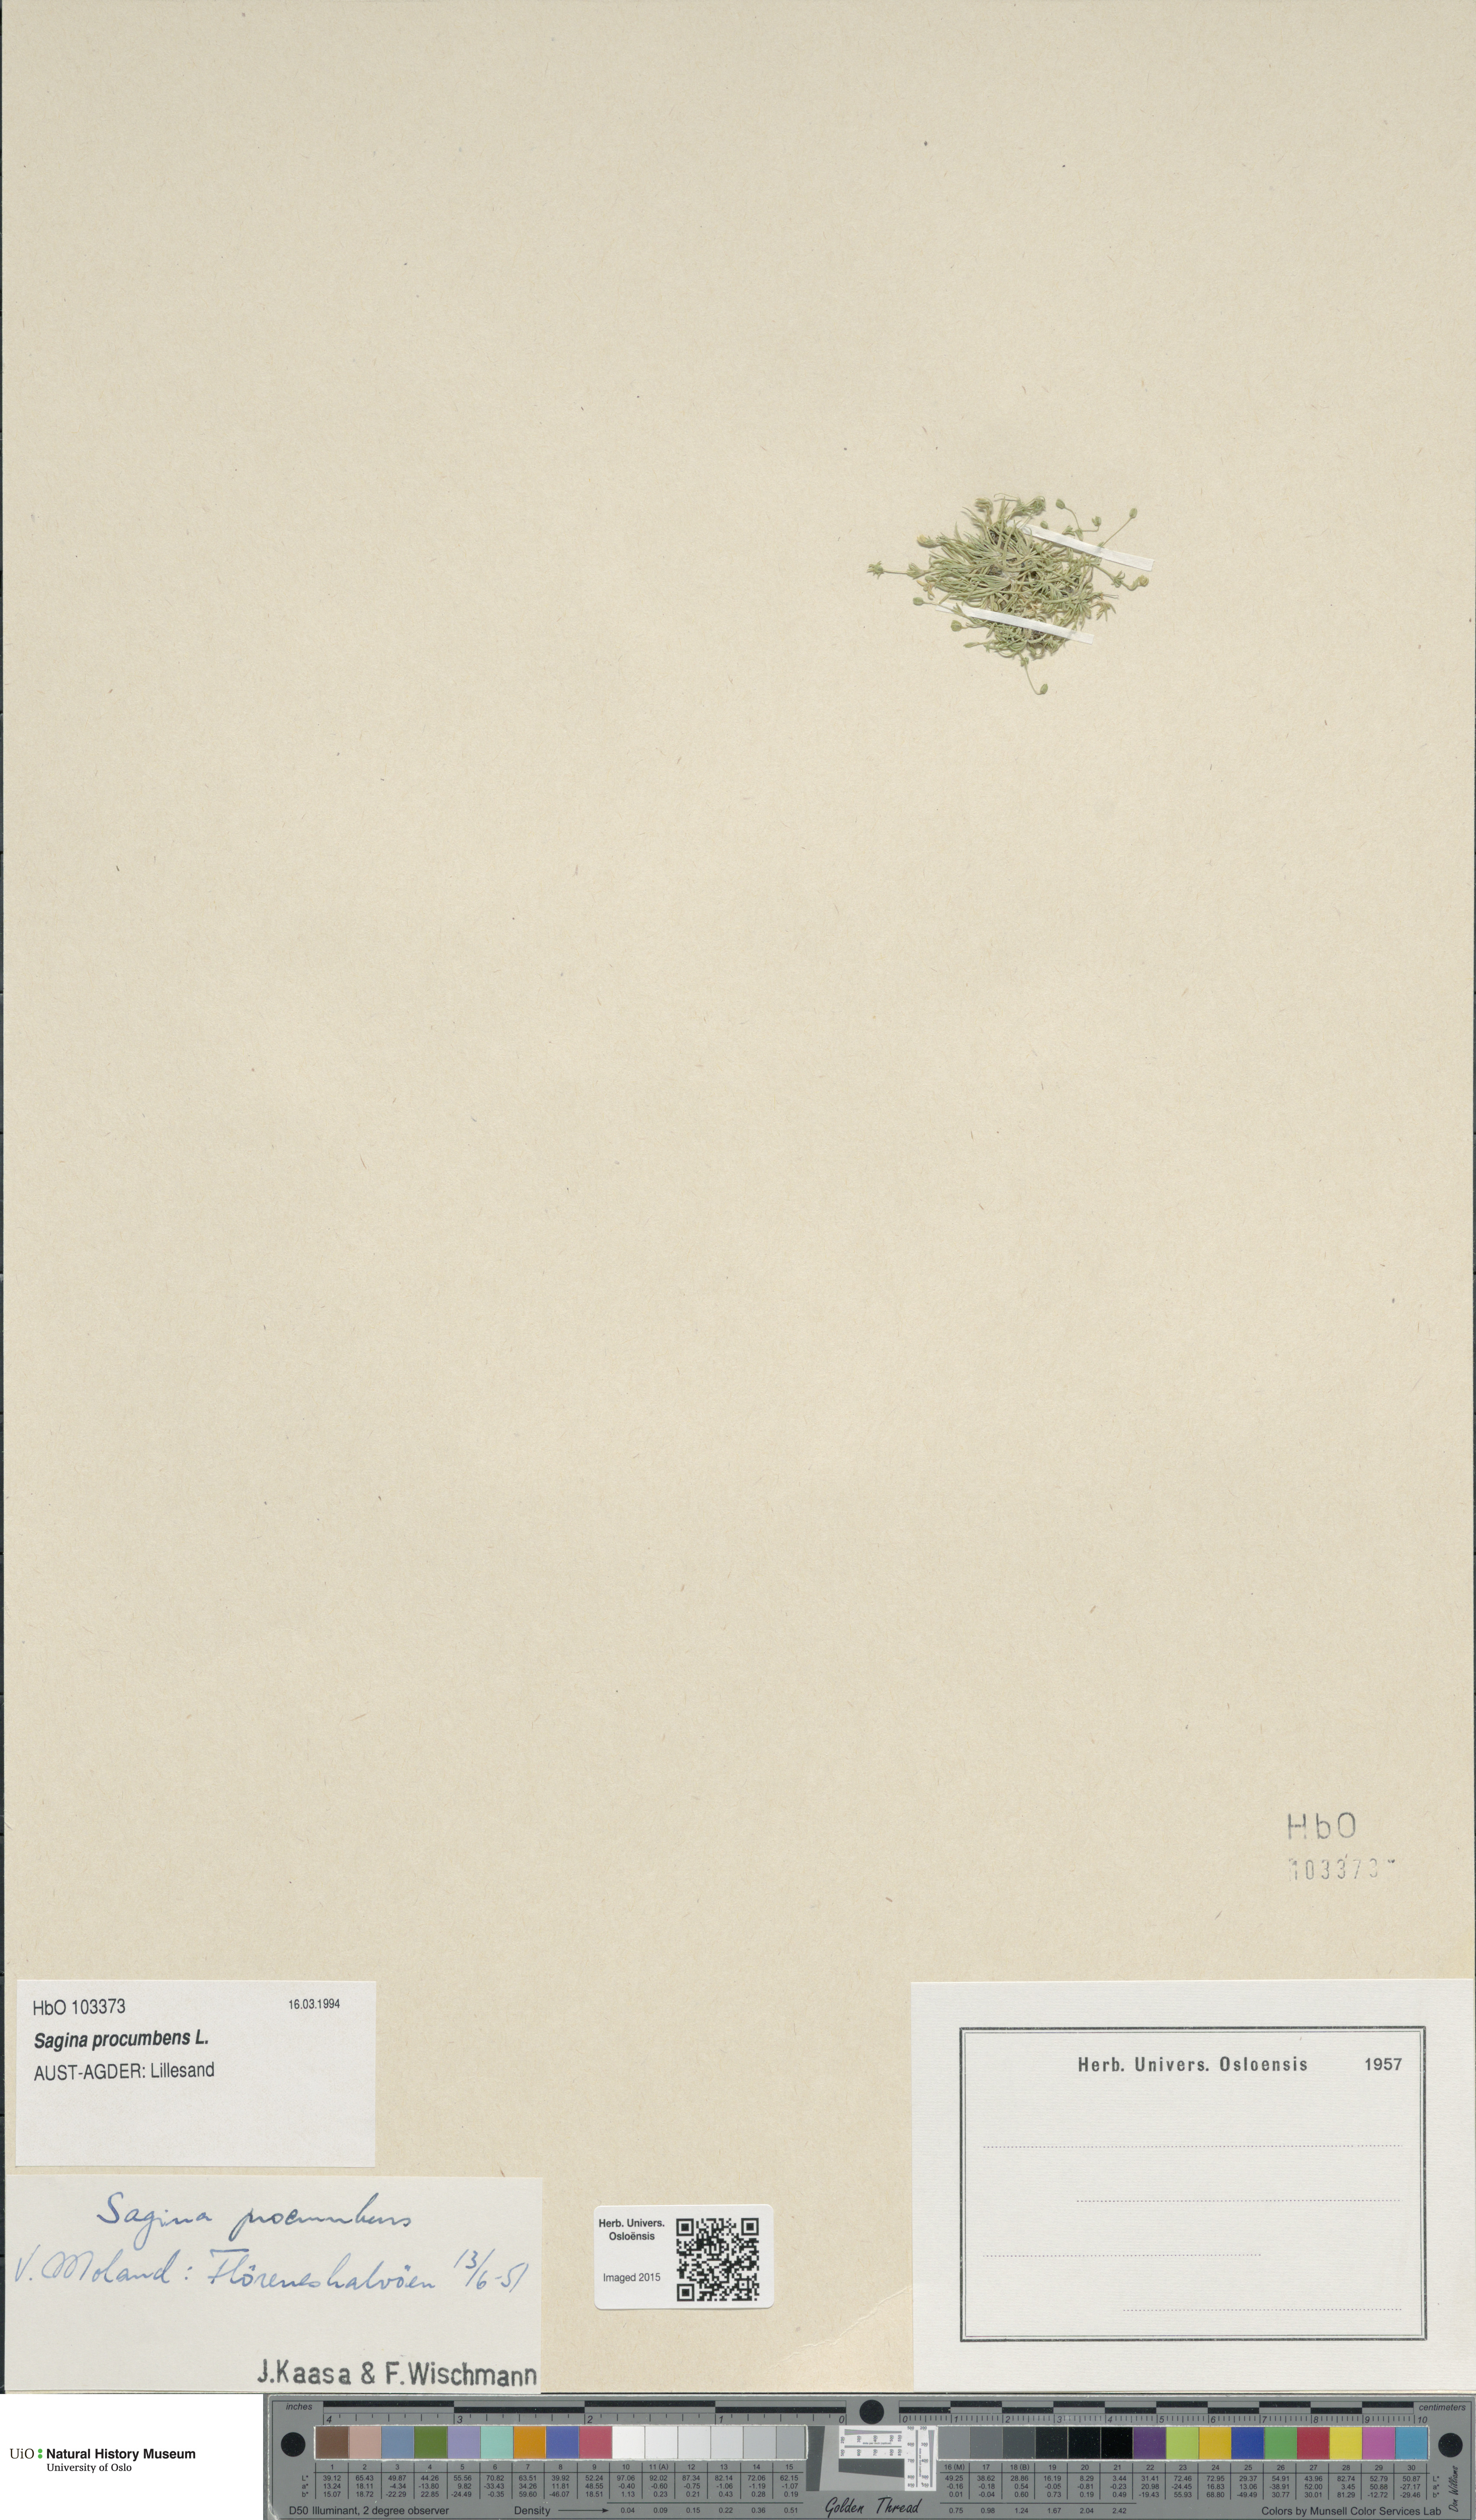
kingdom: Plantae
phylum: Tracheophyta
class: Magnoliopsida
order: Caryophyllales
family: Caryophyllaceae
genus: Sagina
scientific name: Sagina procumbens
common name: Procumbent pearlwort
